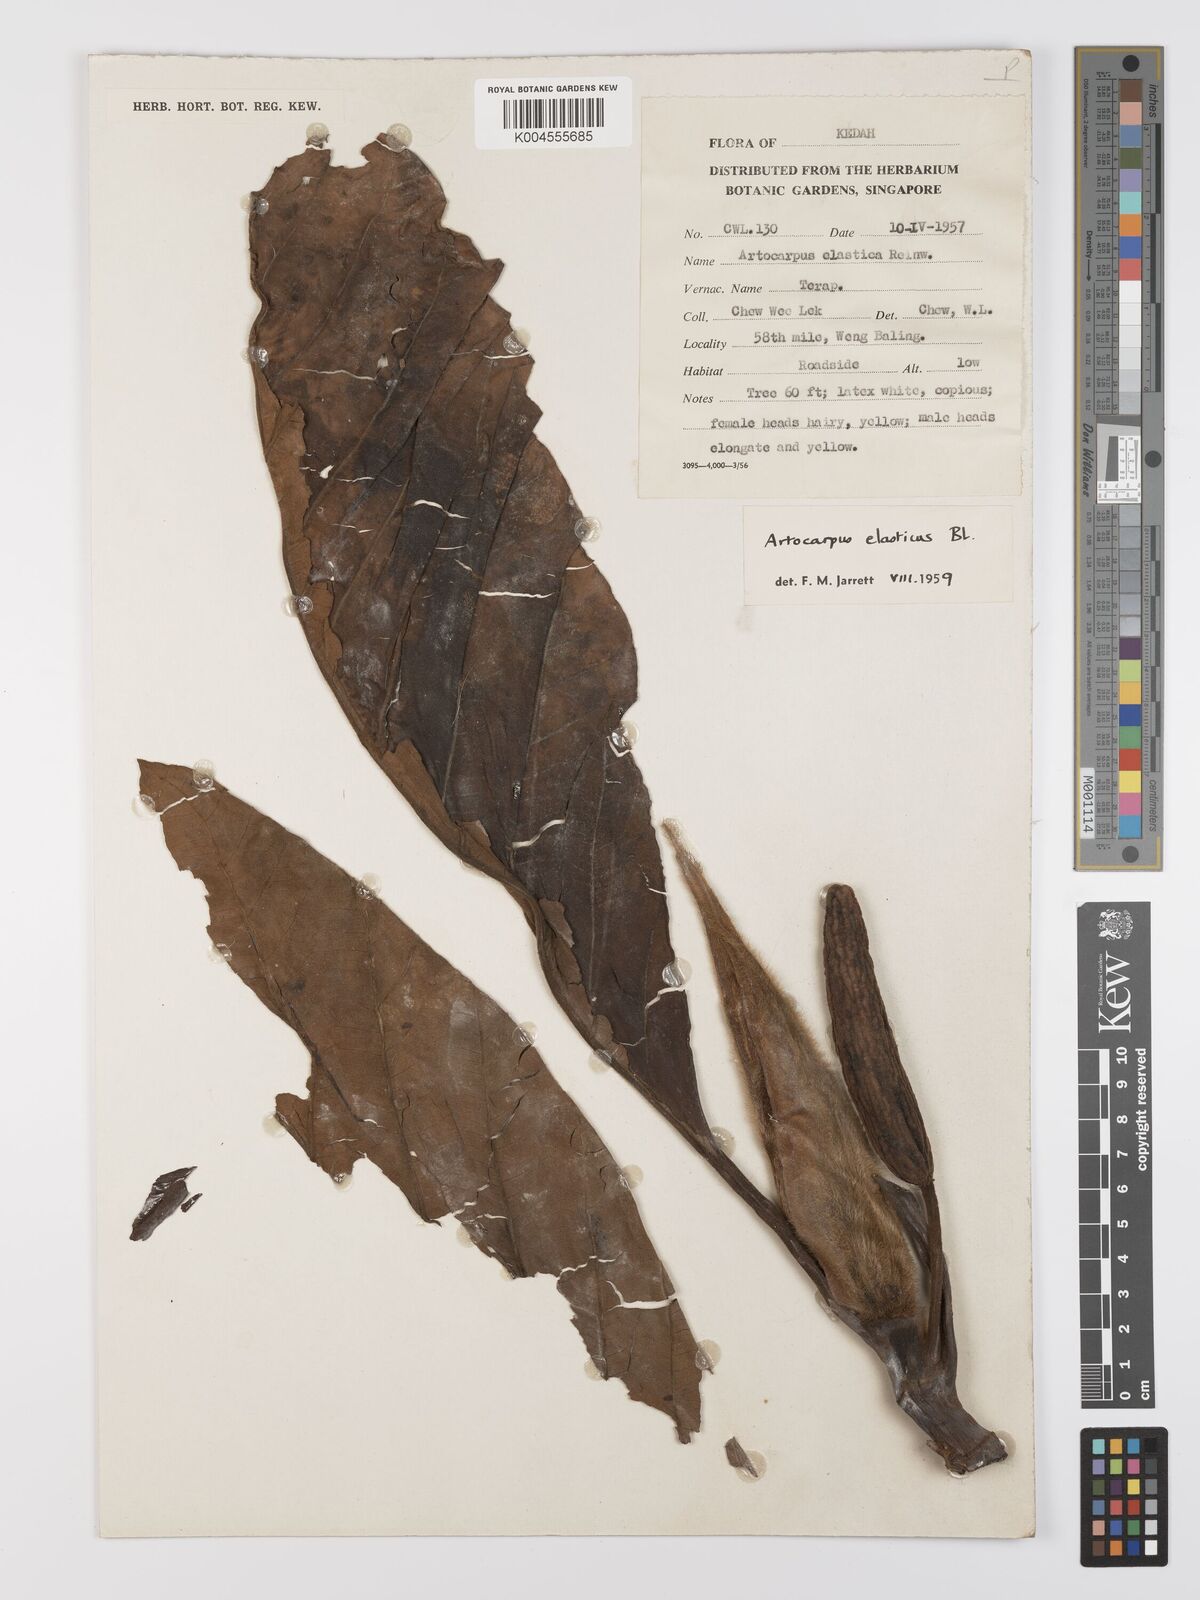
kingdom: Plantae
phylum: Tracheophyta
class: Magnoliopsida
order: Rosales
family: Moraceae
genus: Artocarpus
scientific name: Artocarpus elasticus
